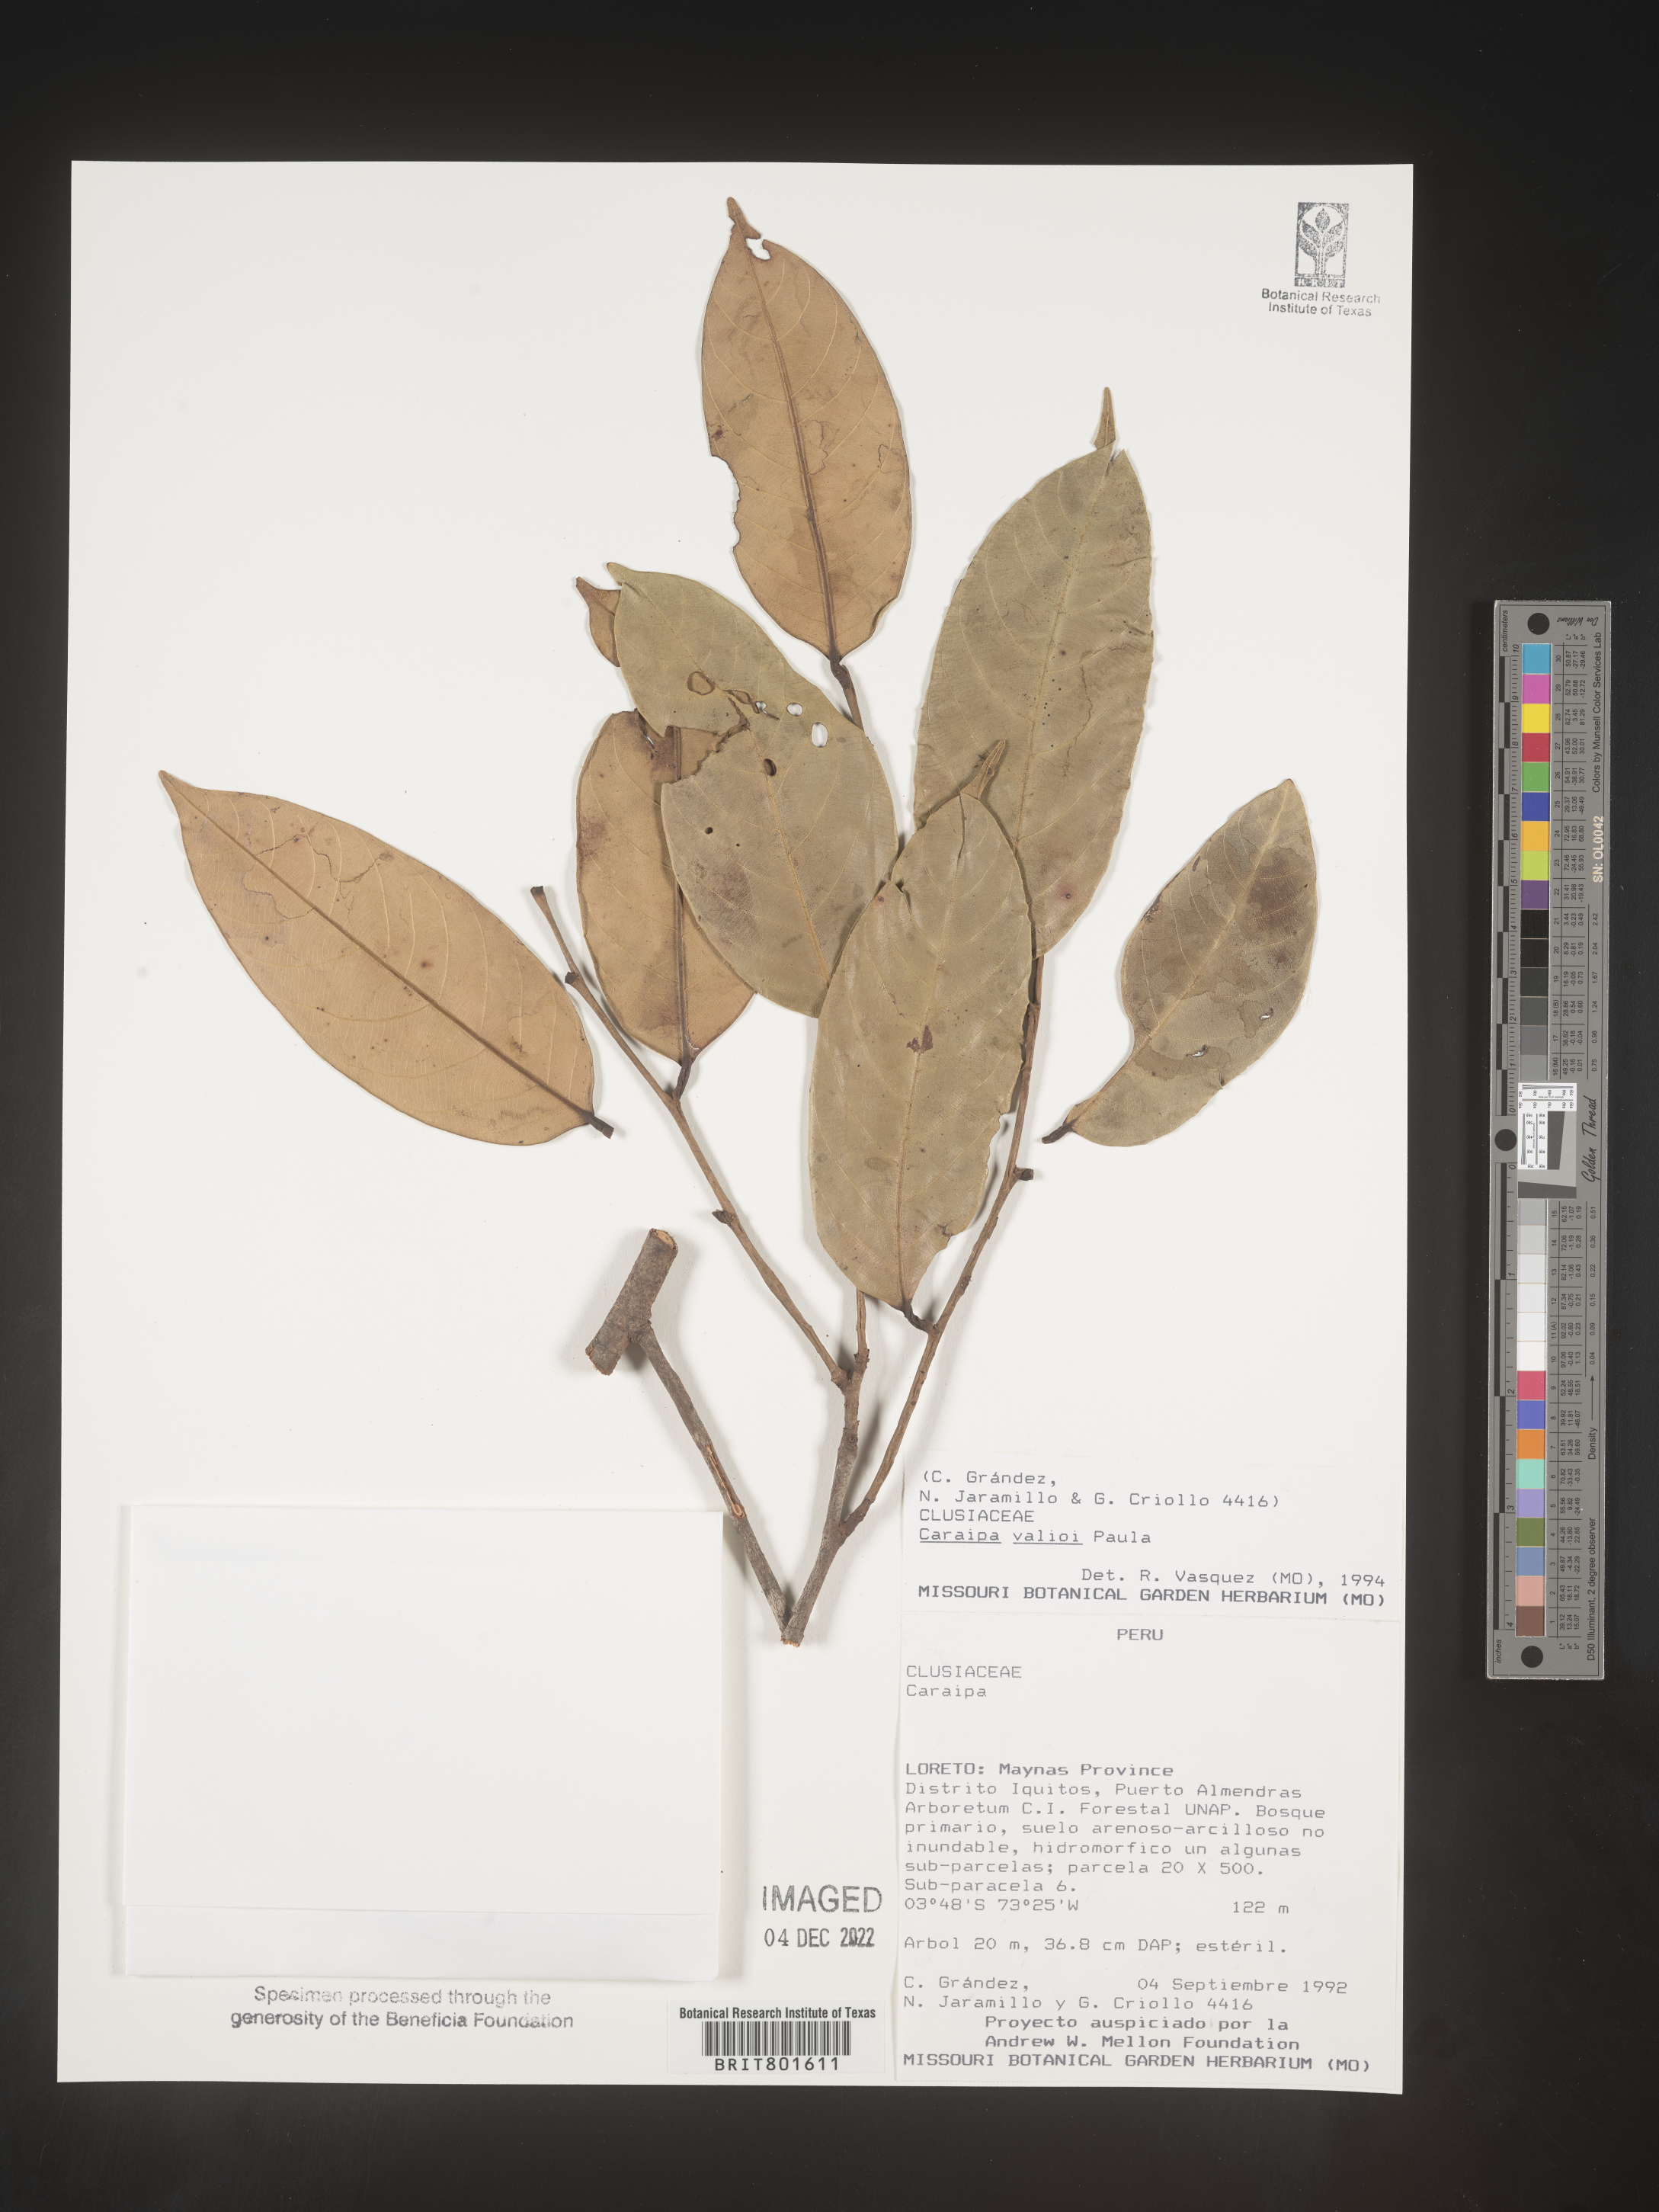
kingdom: Plantae
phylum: Tracheophyta
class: Magnoliopsida
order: Malpighiales
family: Calophyllaceae
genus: Caraipa
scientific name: Caraipa valioi
